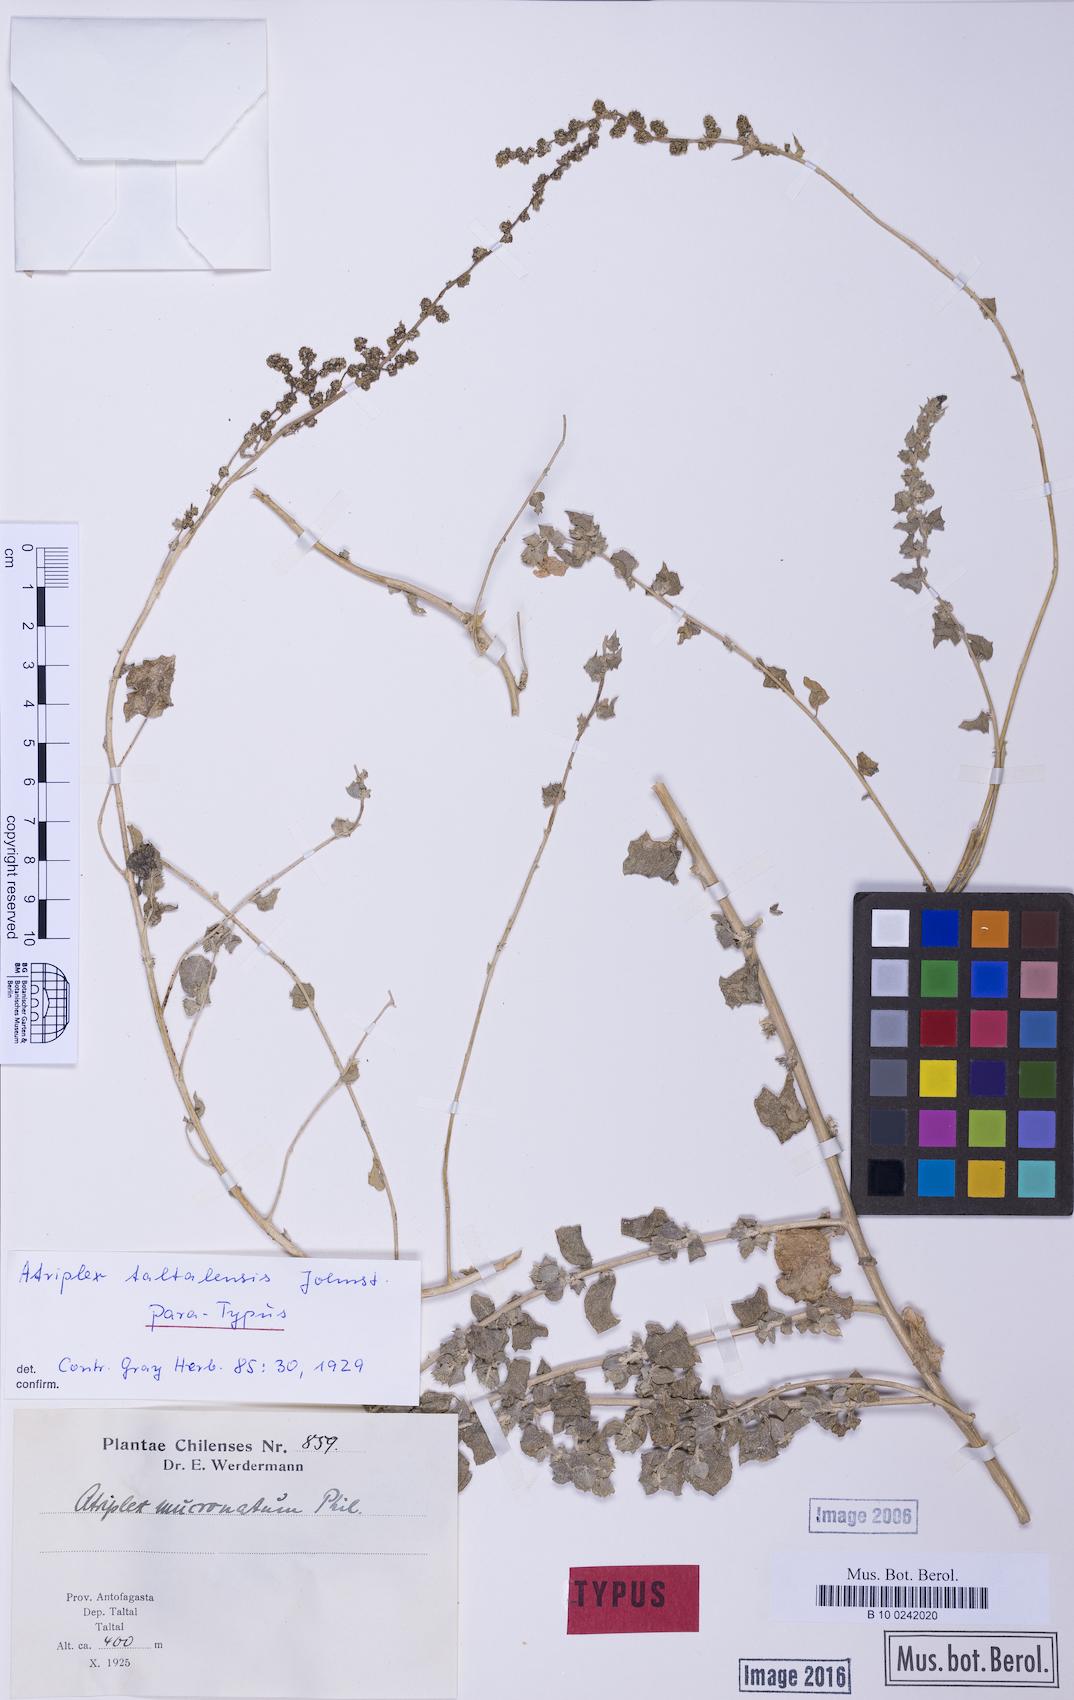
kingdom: Plantae
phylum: Tracheophyta
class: Magnoliopsida
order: Caryophyllales
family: Amaranthaceae
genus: Atriplex
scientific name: Atriplex taltalensis
